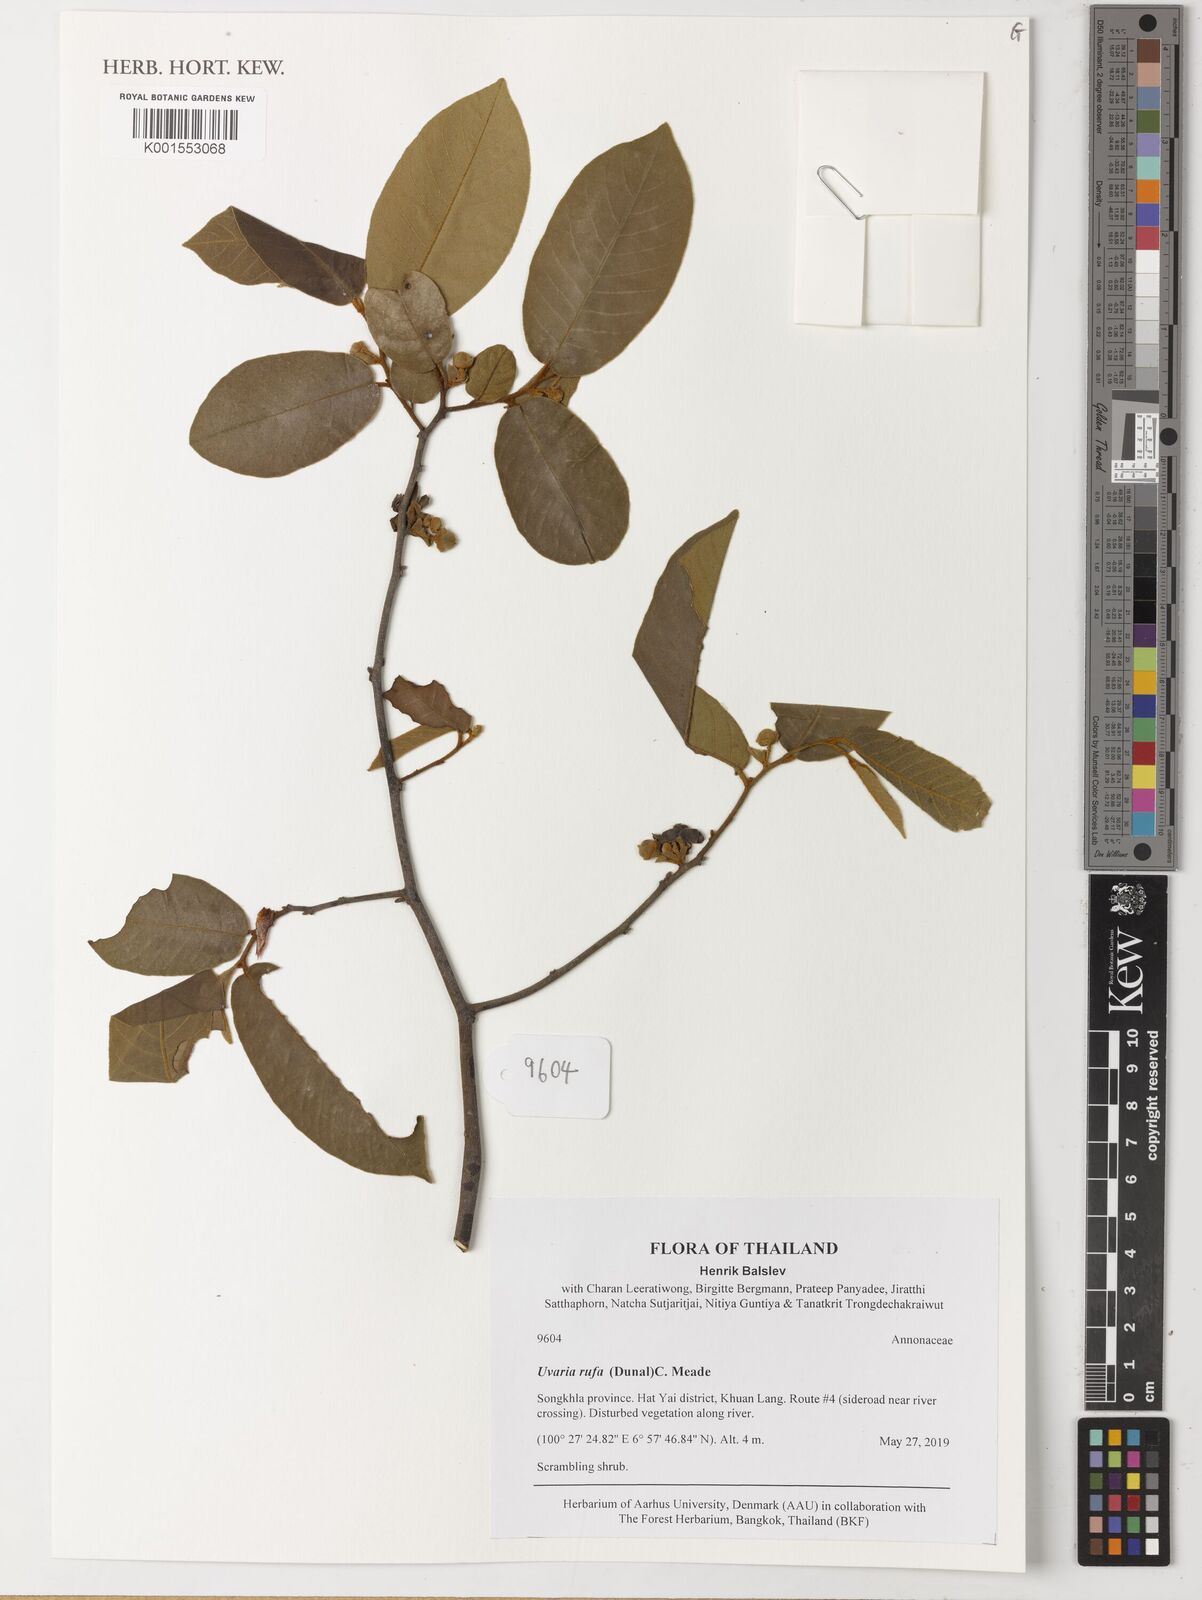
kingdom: Plantae
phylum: Tracheophyta
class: Magnoliopsida
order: Magnoliales
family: Annonaceae
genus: Uvaria
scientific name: Uvaria rufa
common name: Torres strait scrambler
